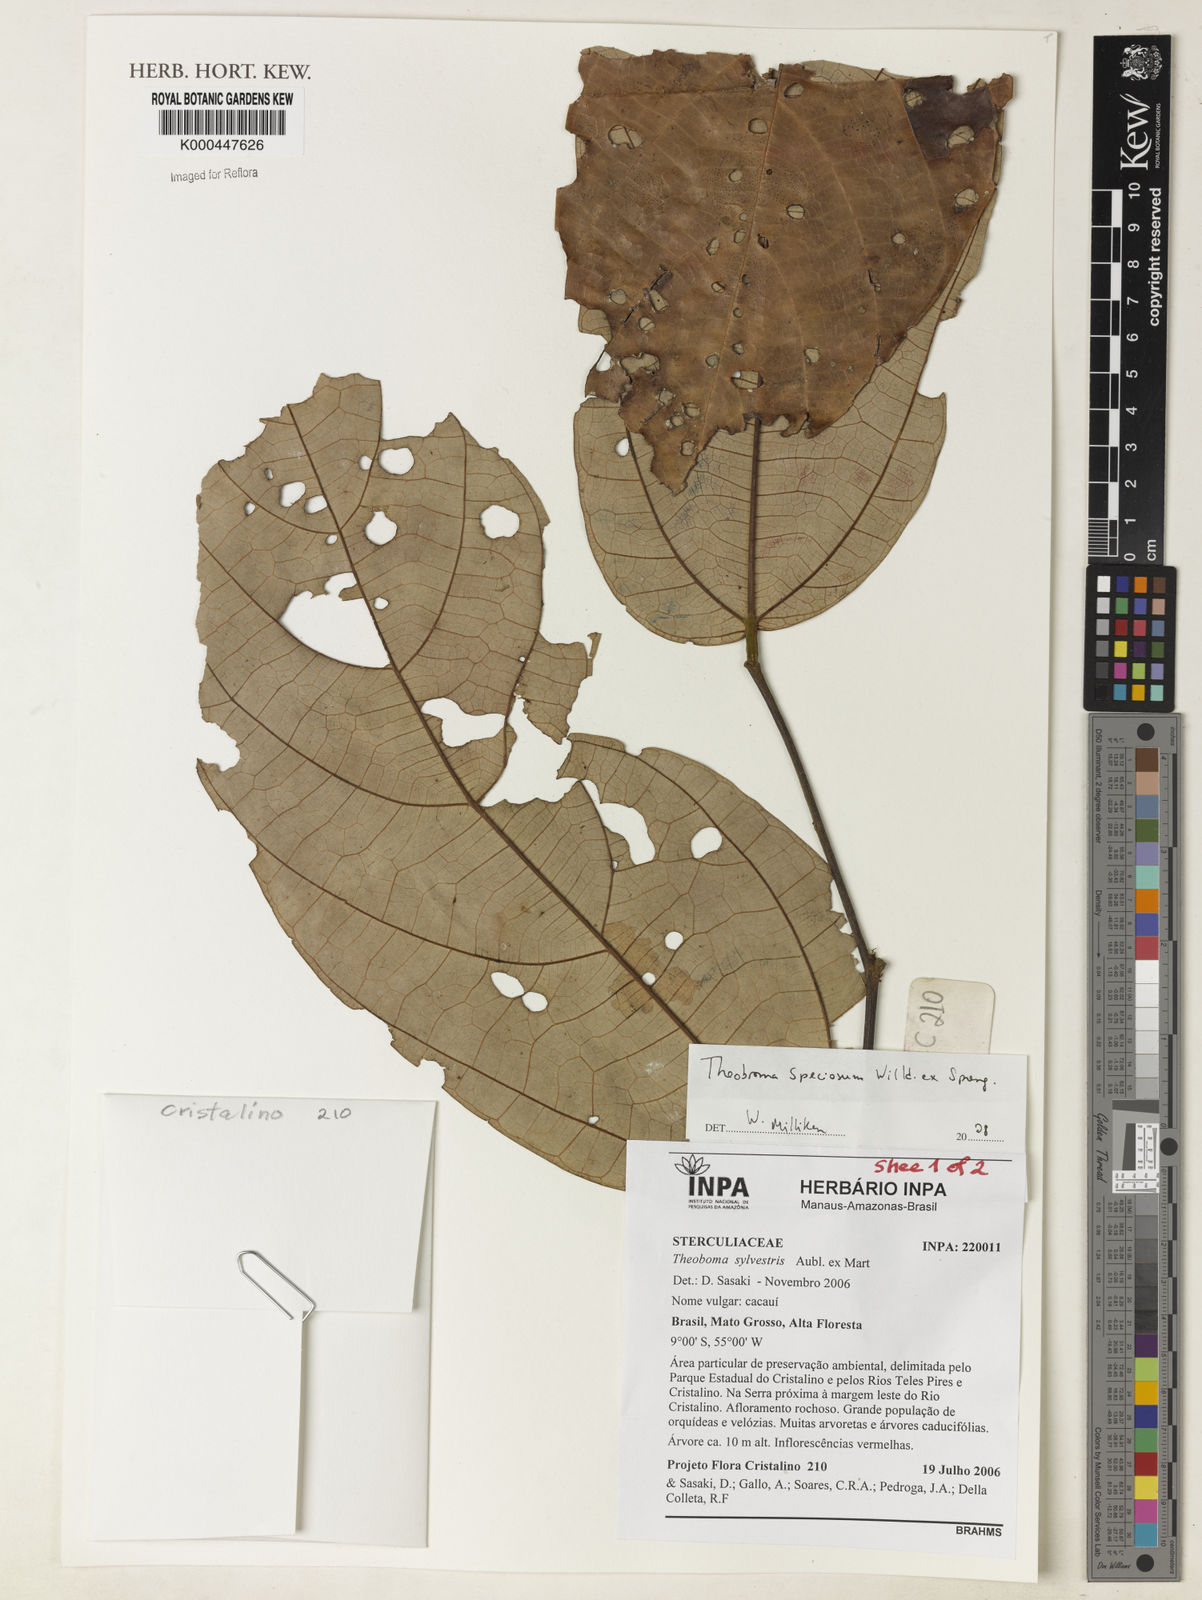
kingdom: Plantae
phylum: Tracheophyta
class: Magnoliopsida
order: Malvales
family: Malvaceae
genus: Theobroma
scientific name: Theobroma speciosum
